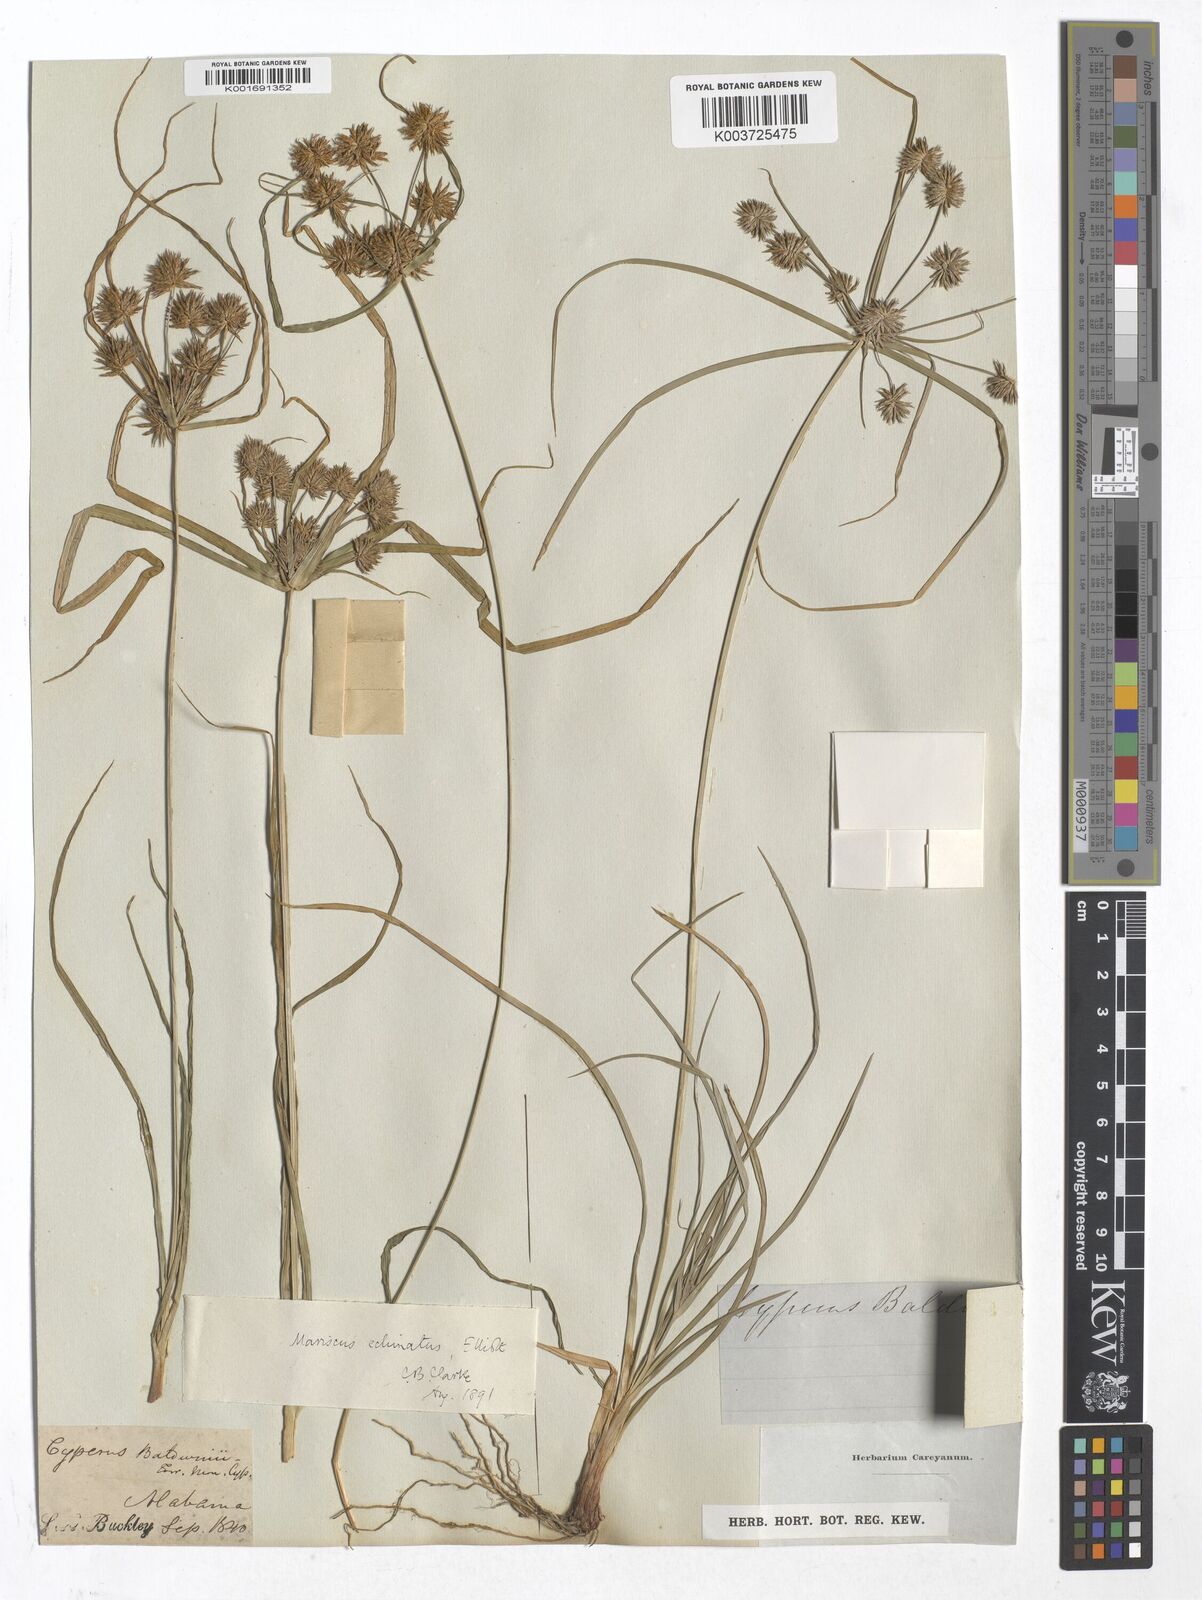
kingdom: Plantae
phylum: Tracheophyta
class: Liliopsida
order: Poales
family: Cyperaceae
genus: Mariscus
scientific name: Mariscus
